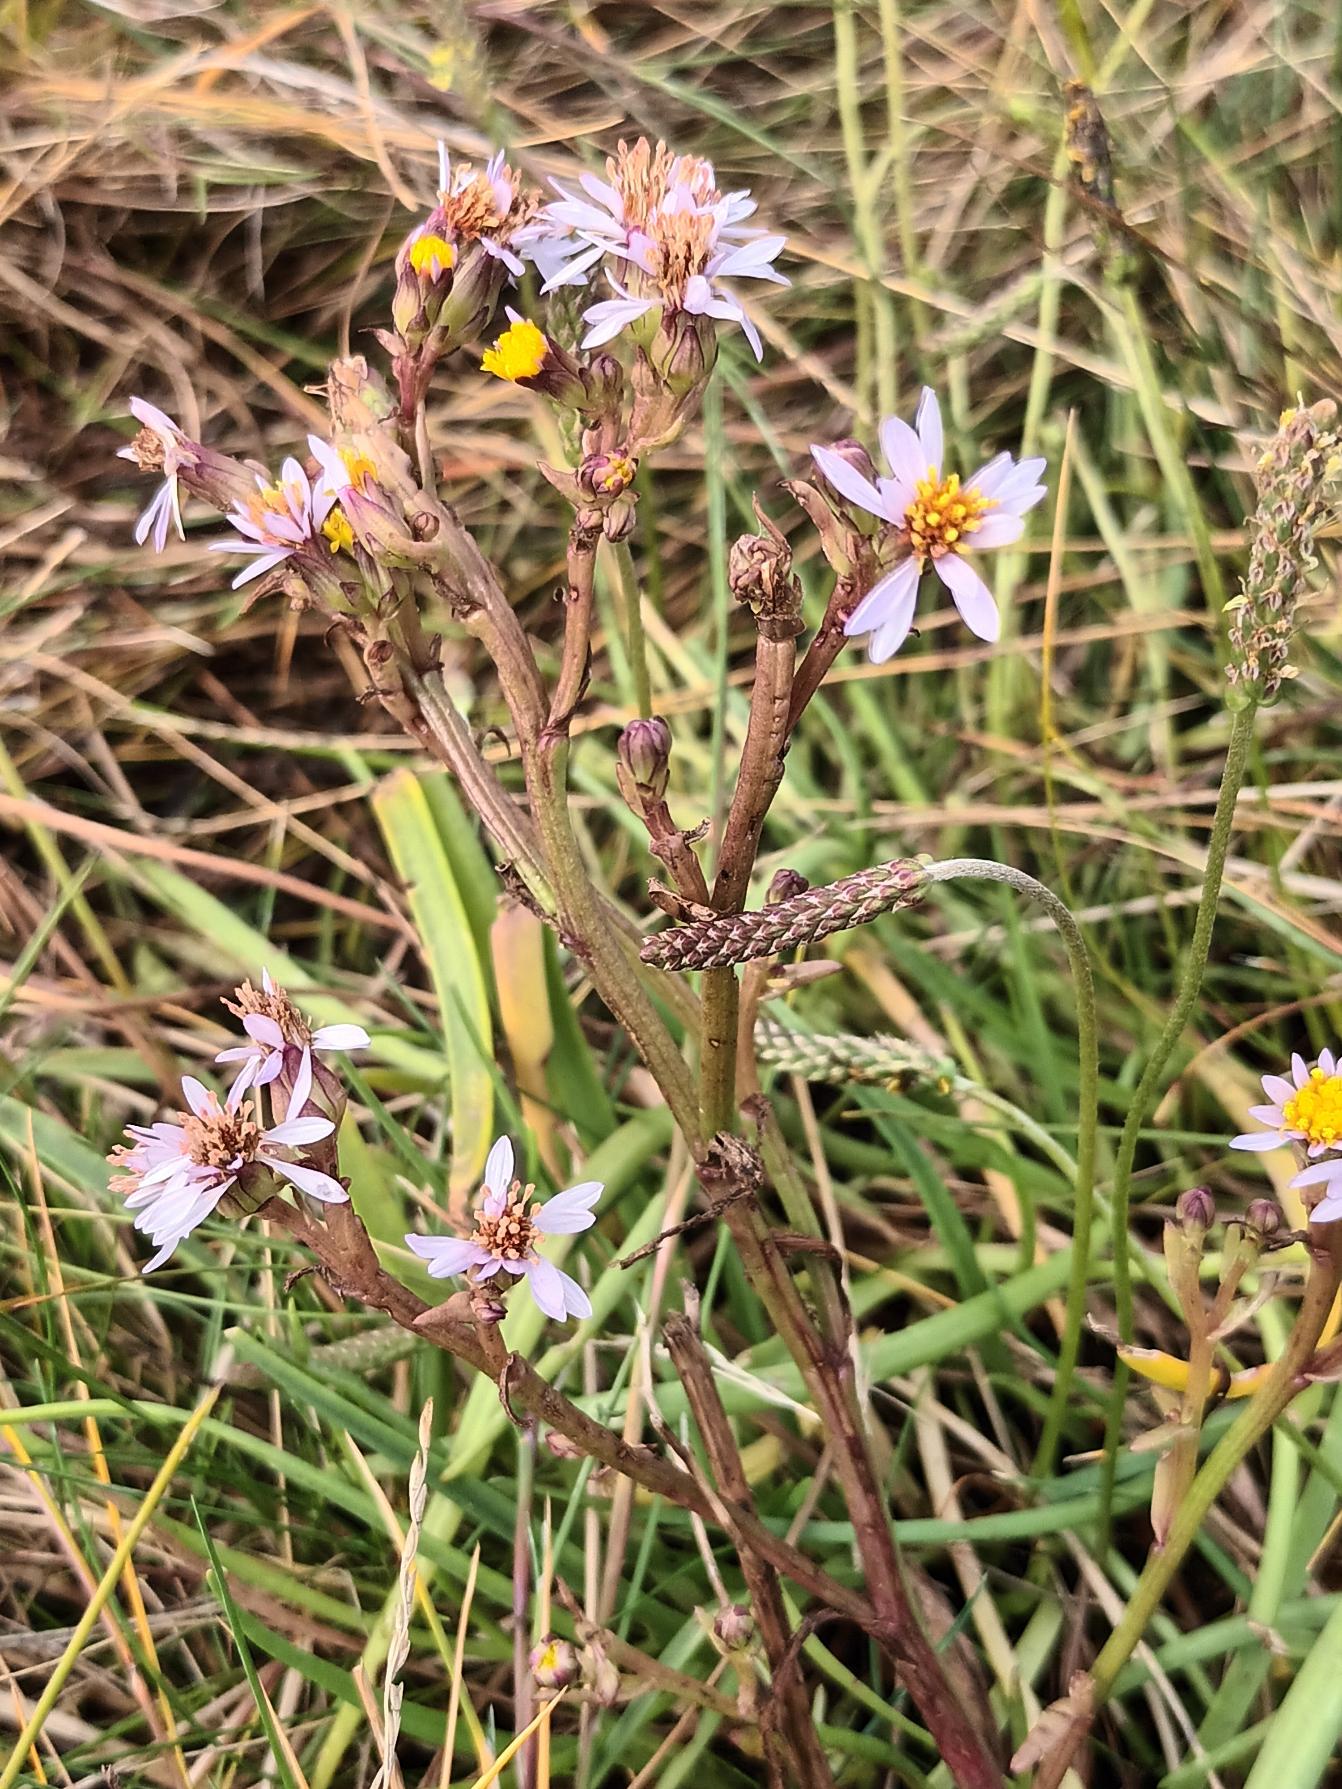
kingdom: Plantae
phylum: Tracheophyta
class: Magnoliopsida
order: Asterales
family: Asteraceae
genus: Tripolium
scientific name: Tripolium pannonicum
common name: Strandasters
